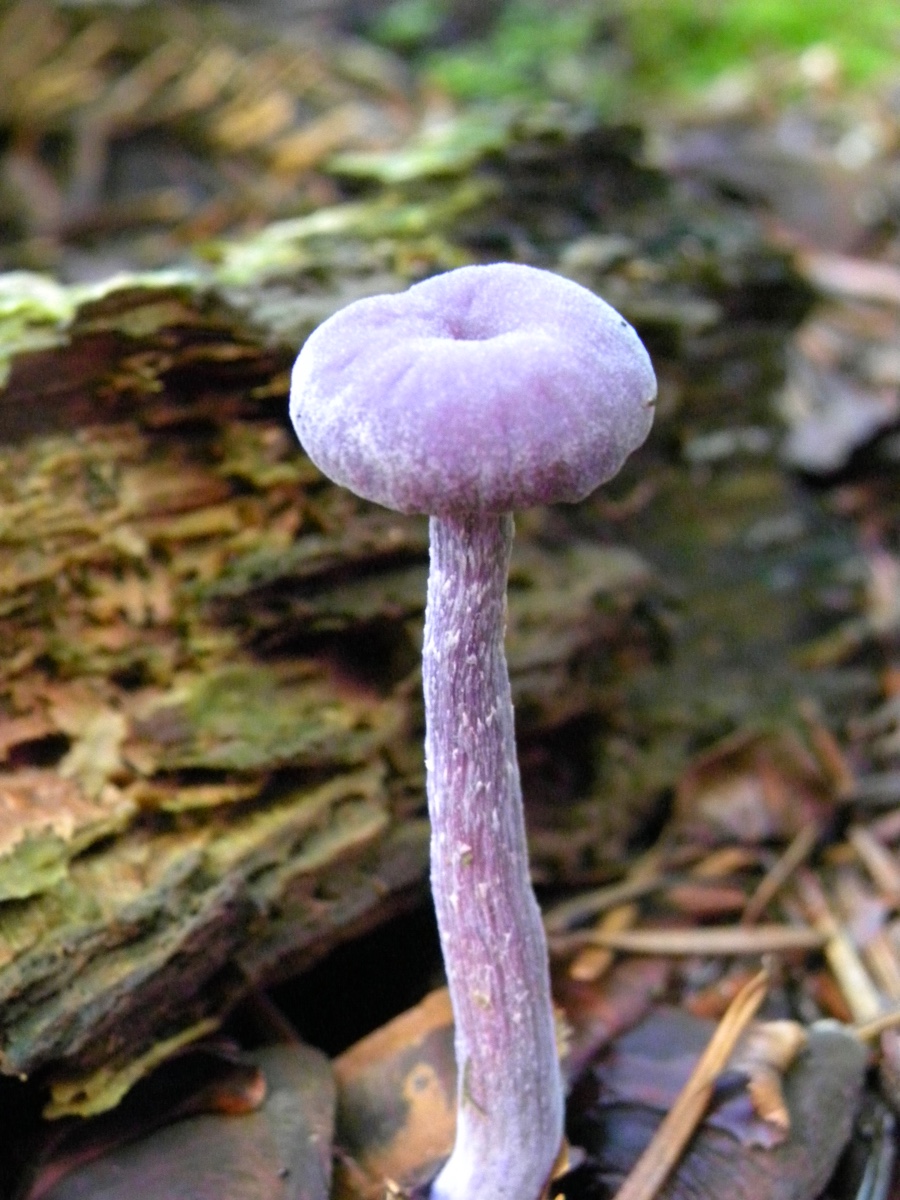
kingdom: Fungi
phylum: Basidiomycota
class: Agaricomycetes
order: Agaricales
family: Hydnangiaceae
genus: Laccaria
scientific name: Laccaria amethystina
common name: violet ametysthat
